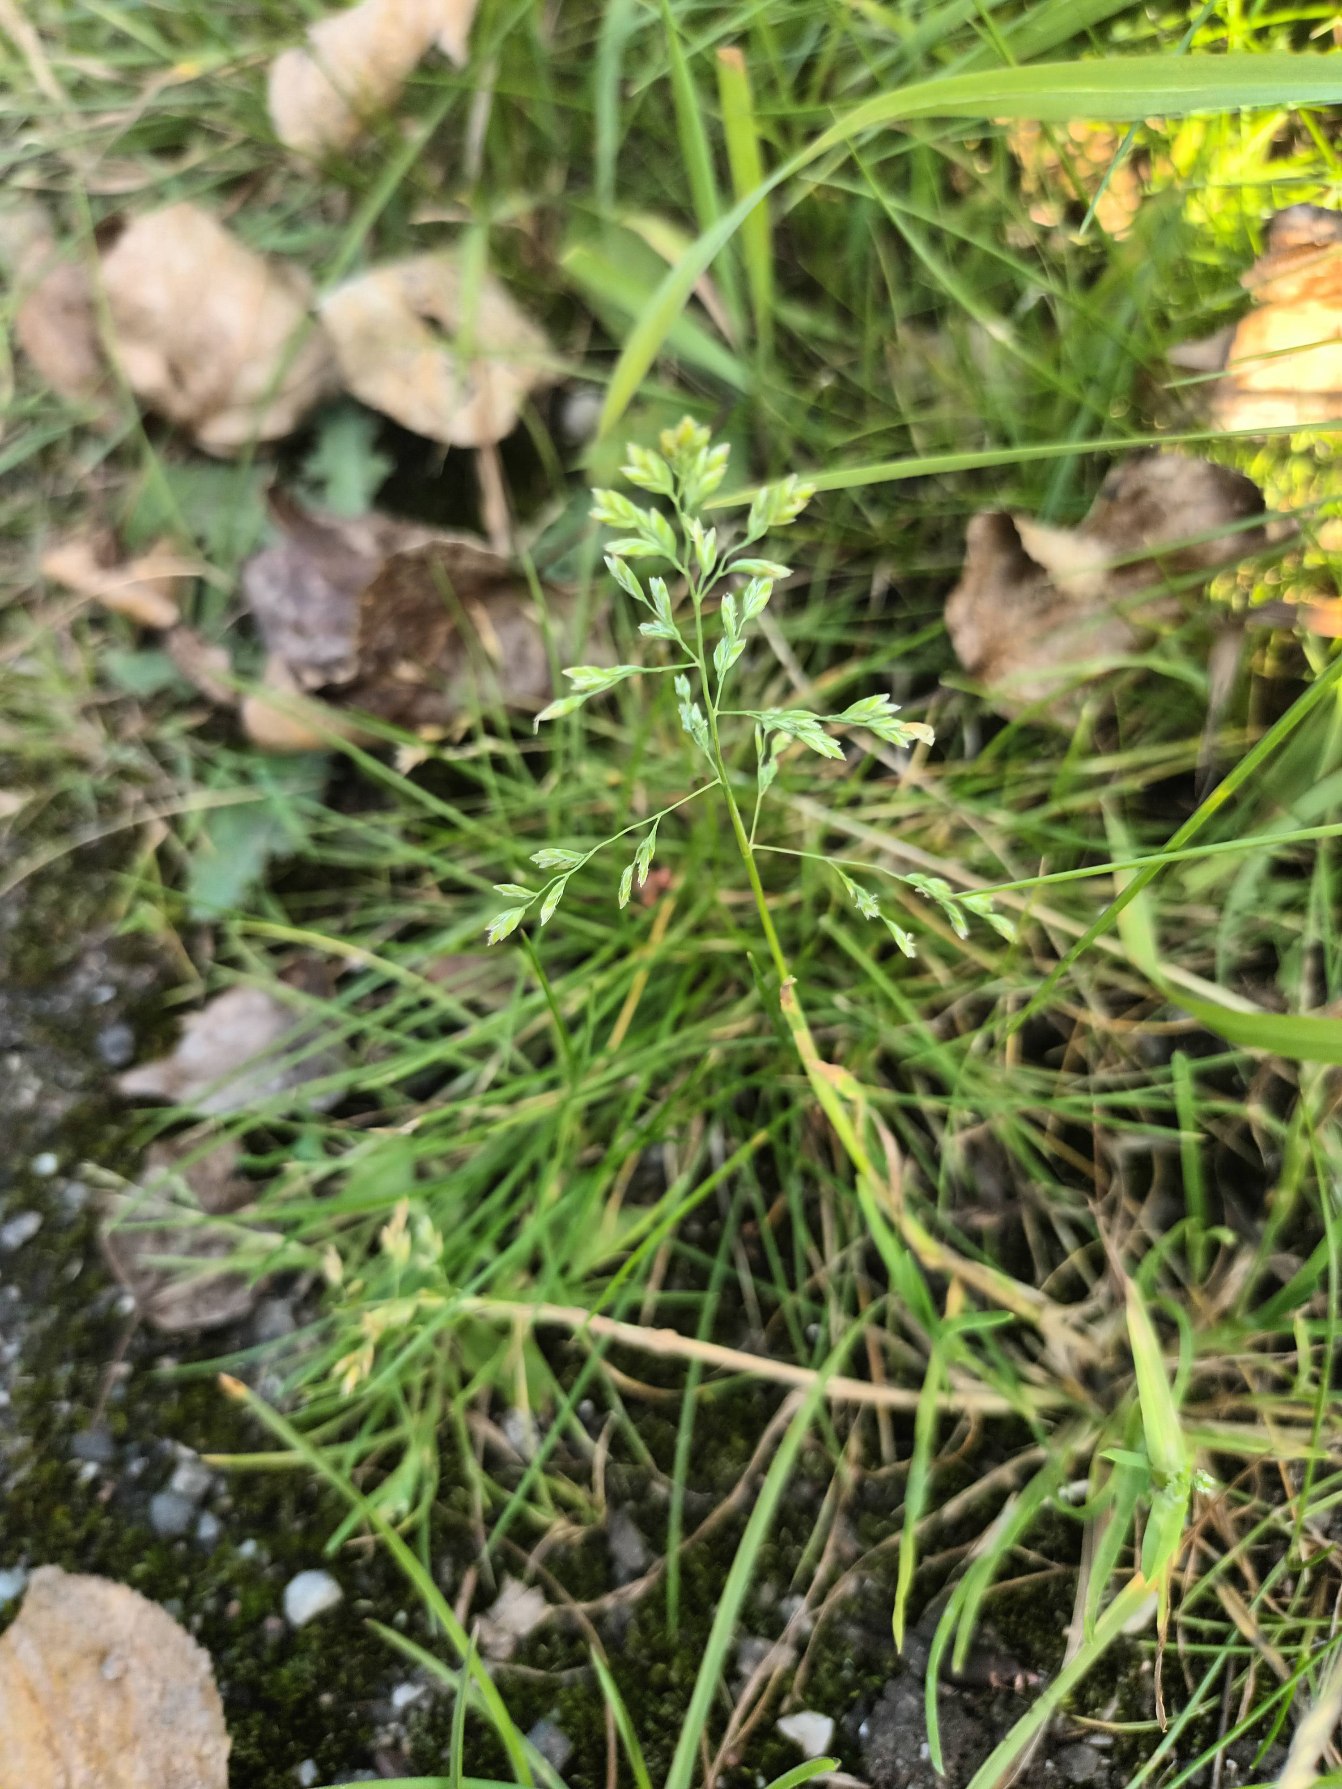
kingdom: Plantae
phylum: Tracheophyta
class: Liliopsida
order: Poales
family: Poaceae
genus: Poa
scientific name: Poa annua
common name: Enårig rapgræs
